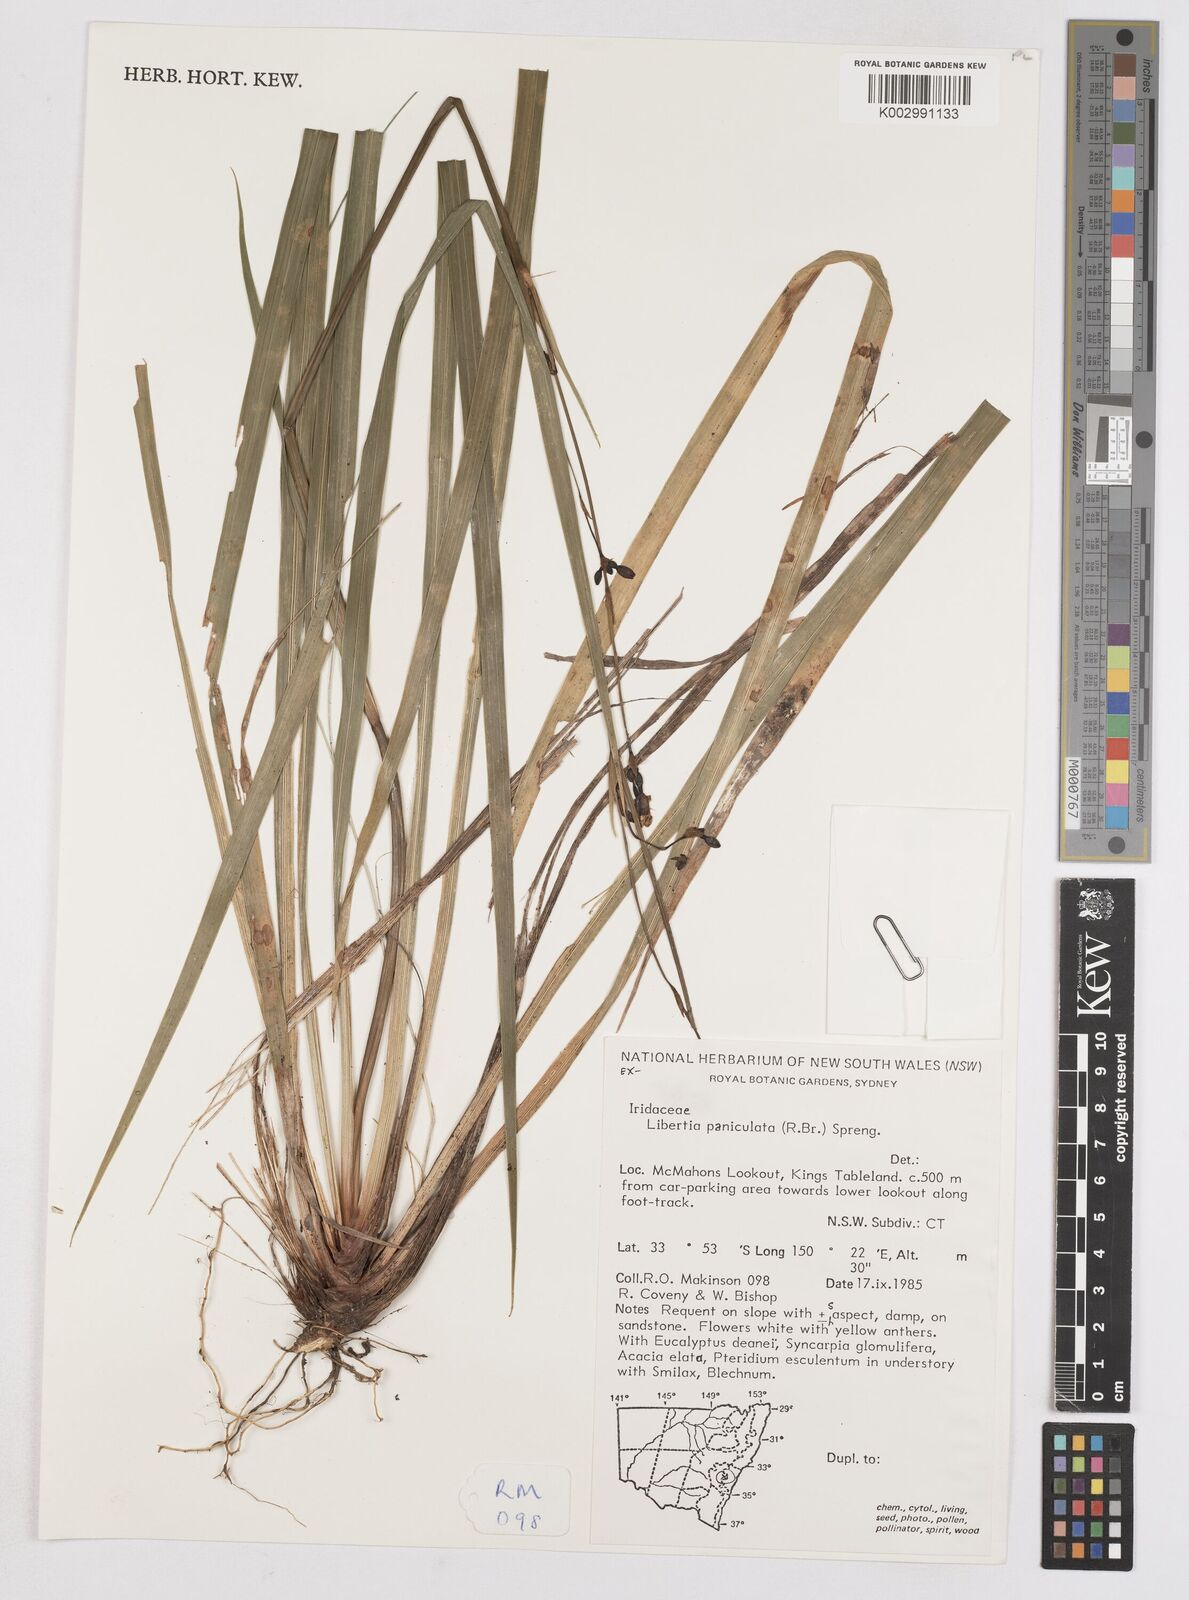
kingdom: Plantae
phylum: Tracheophyta
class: Liliopsida
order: Asparagales
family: Iridaceae
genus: Libertia
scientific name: Libertia paniculata
